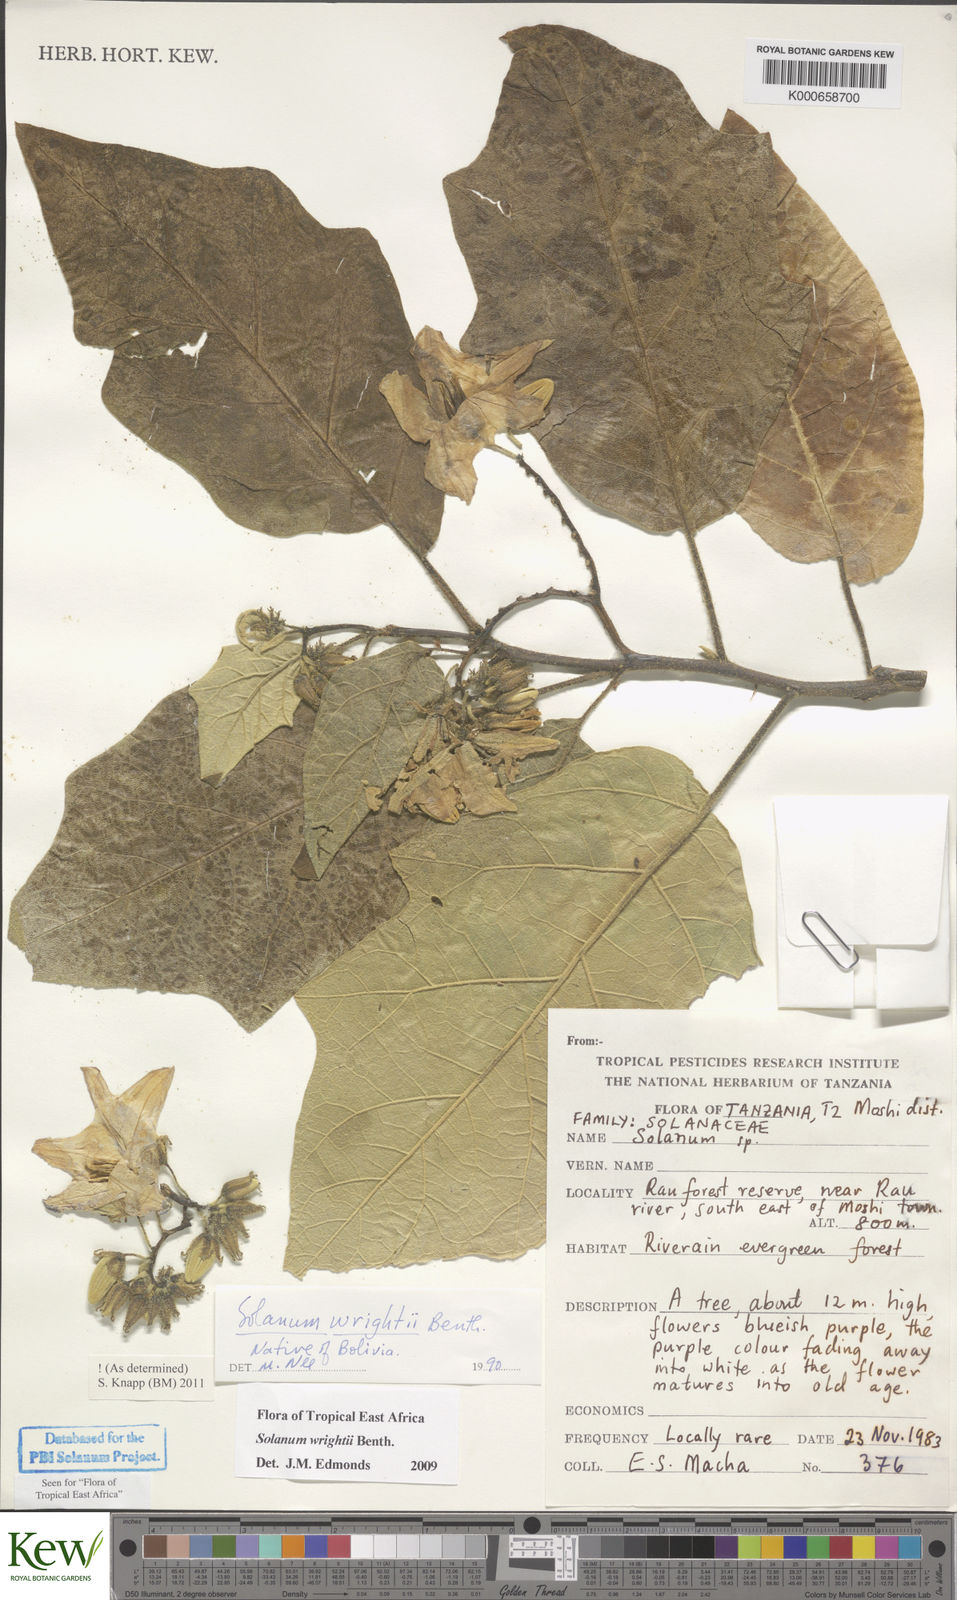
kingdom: Plantae
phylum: Tracheophyta
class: Magnoliopsida
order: Solanales
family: Solanaceae
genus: Solanum
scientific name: Solanum wrightii
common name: Brazilian potato-tree
